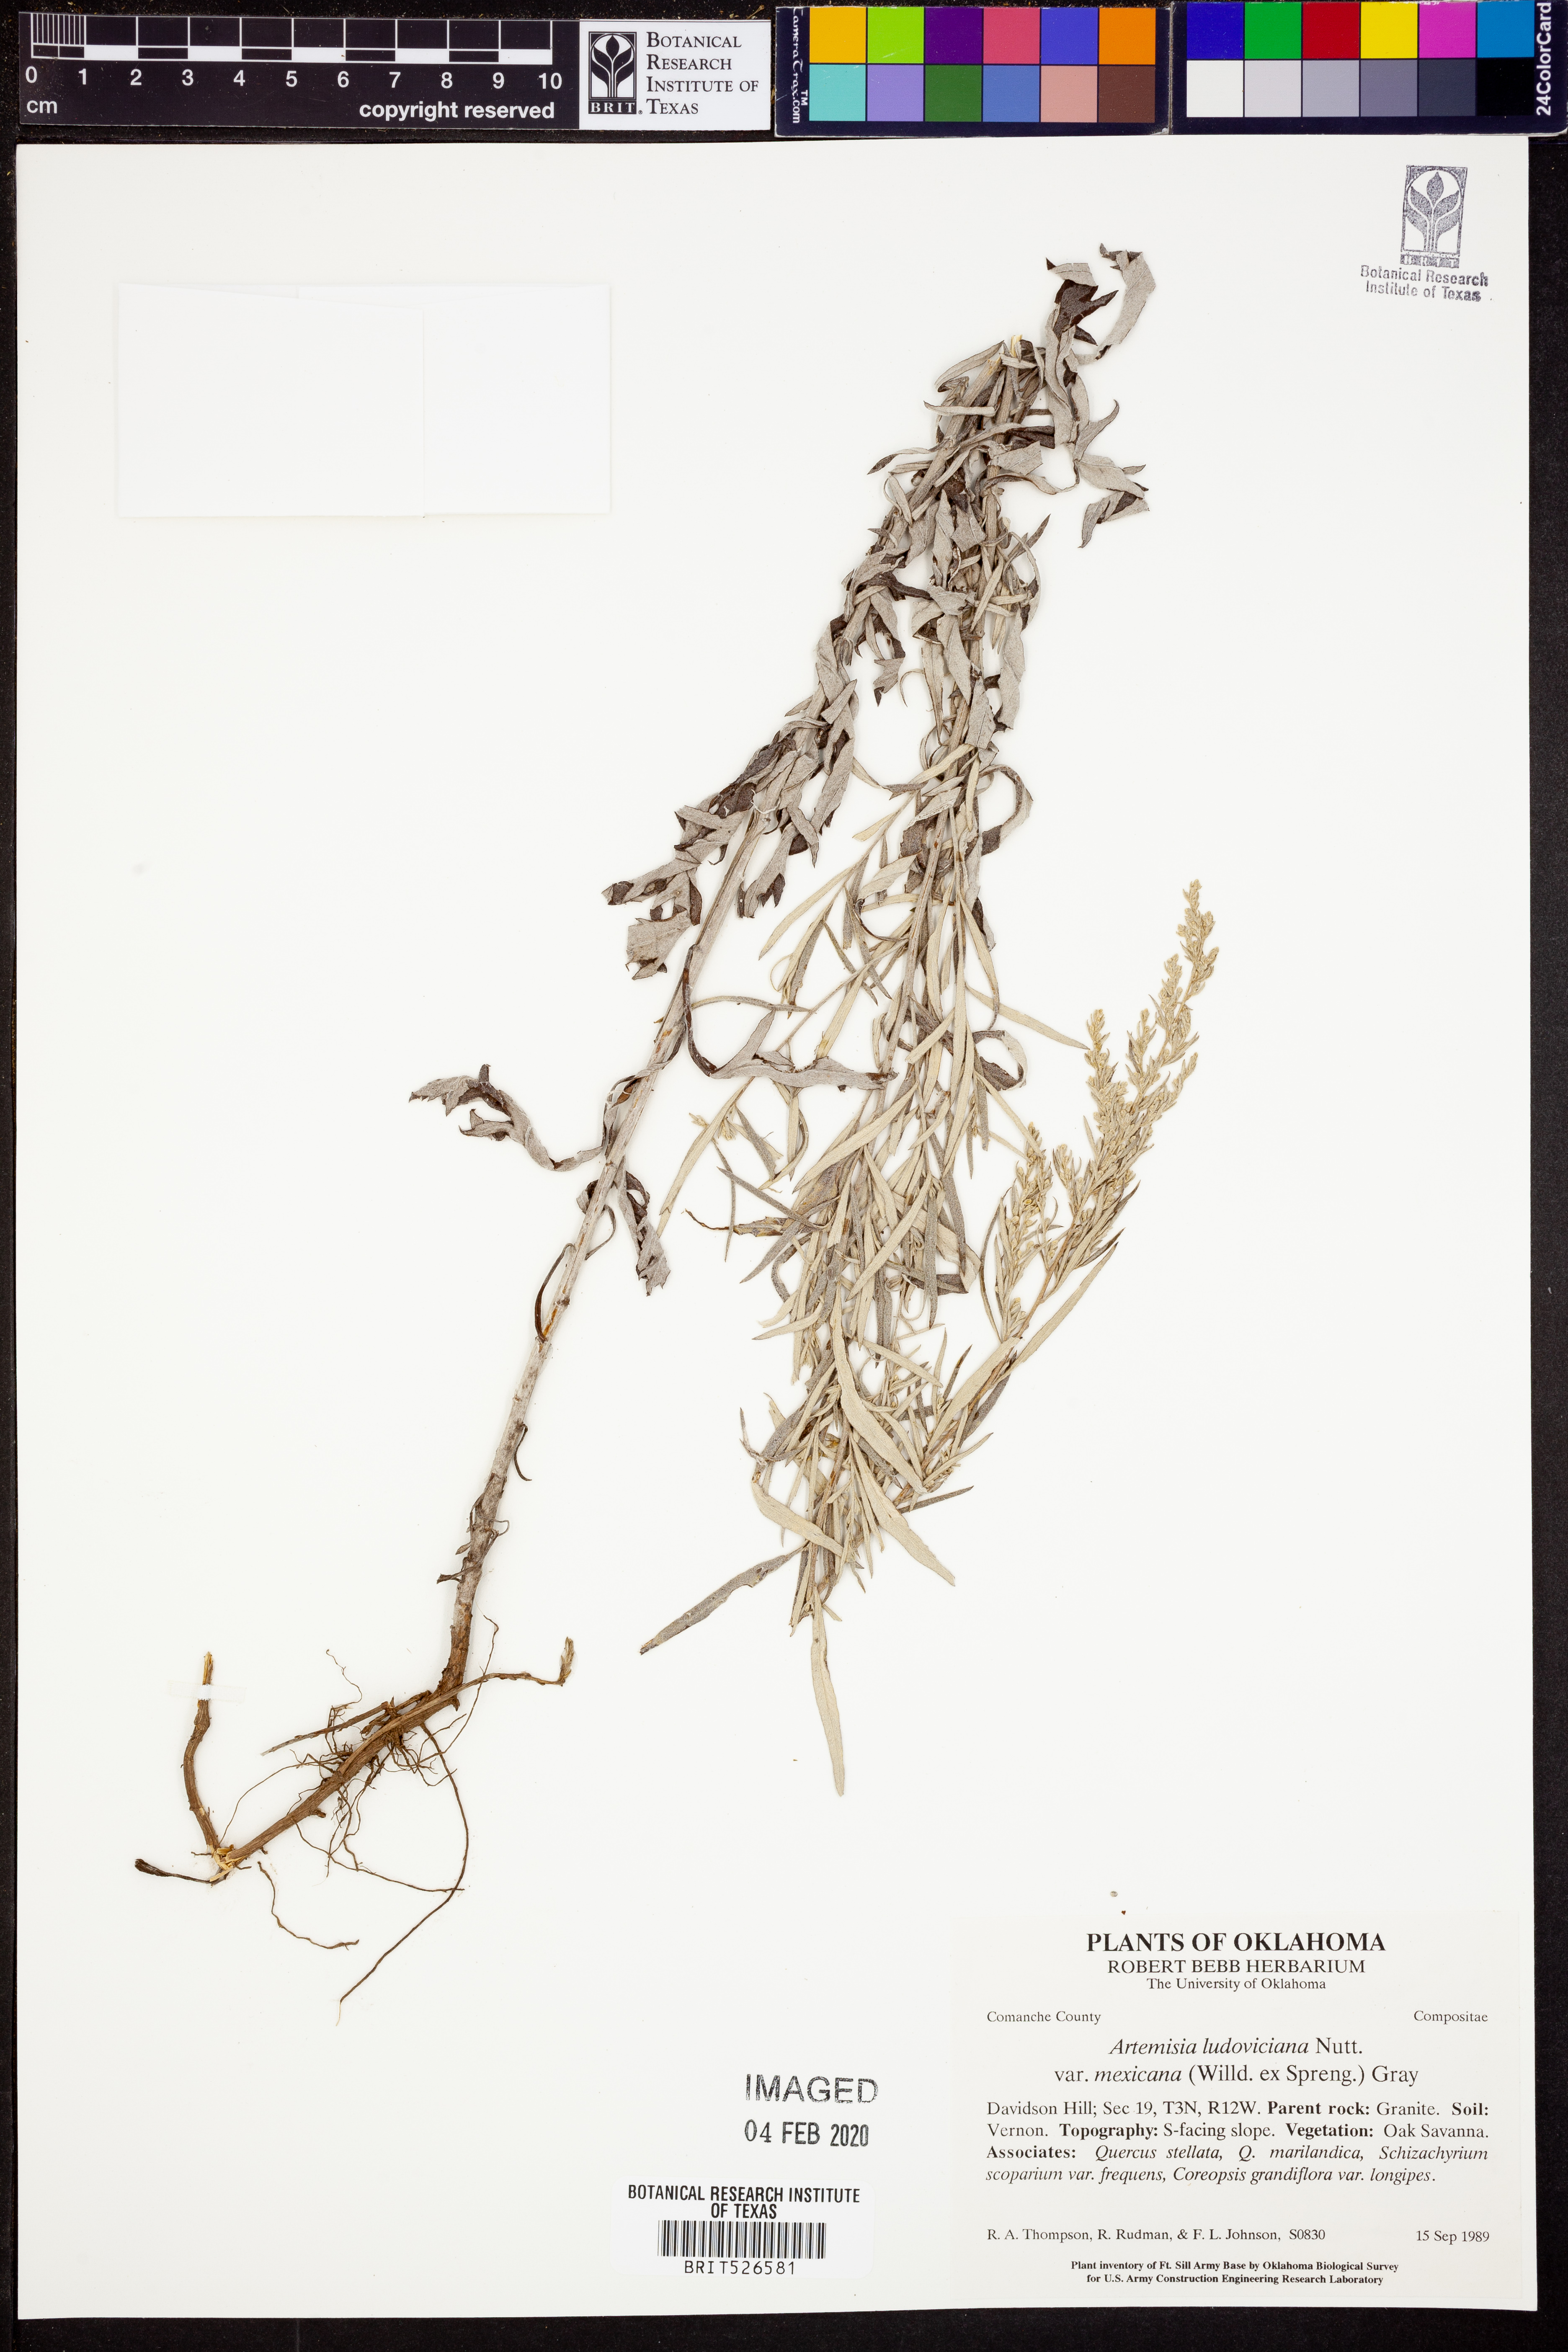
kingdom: Plantae
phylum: Tracheophyta
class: Magnoliopsida
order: Asterales
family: Asteraceae
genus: Artemisia
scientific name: Artemisia ludoviciana
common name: Western mugwort
